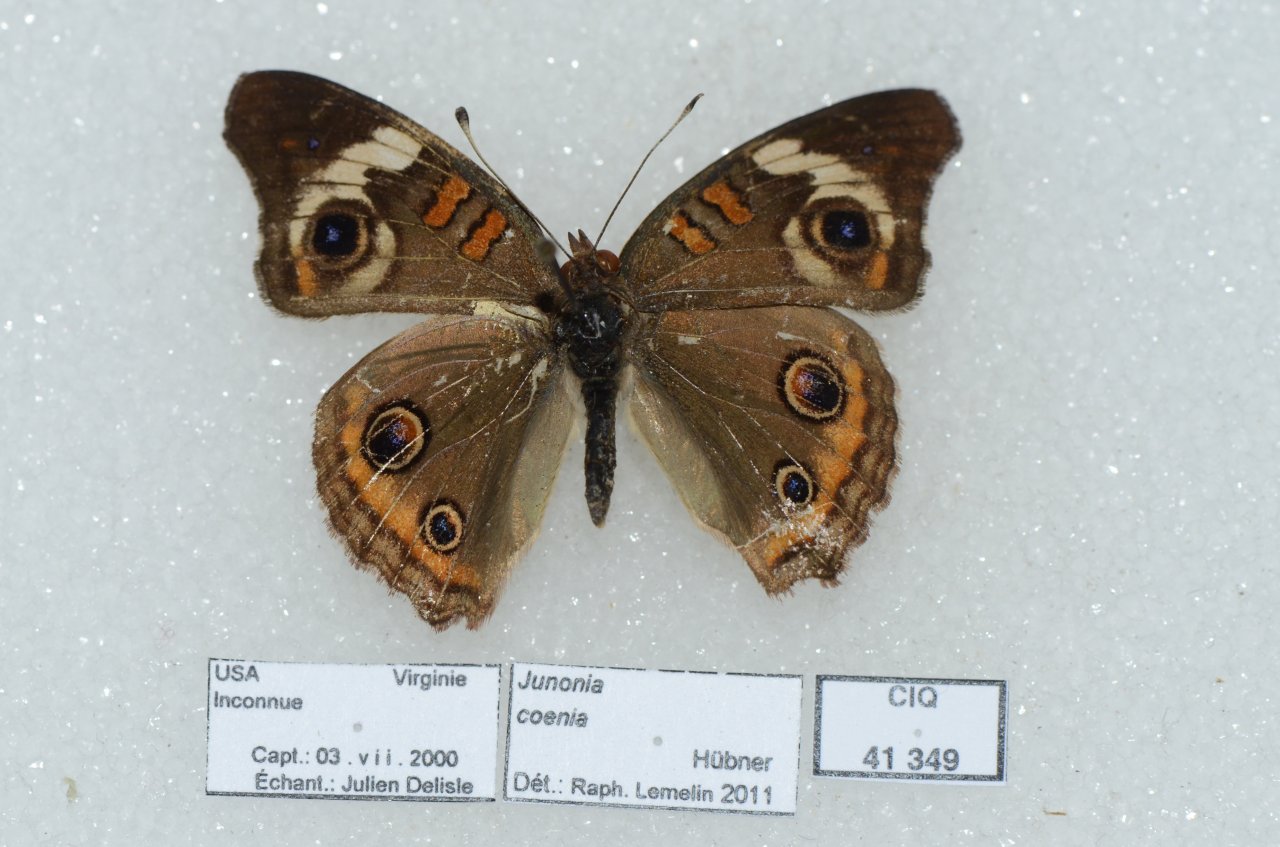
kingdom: Animalia
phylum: Arthropoda
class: Insecta
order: Lepidoptera
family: Nymphalidae
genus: Junonia
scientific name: Junonia coenia
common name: Common Buckeye
